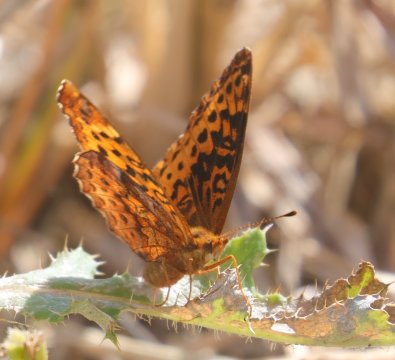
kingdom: Animalia
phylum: Arthropoda
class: Insecta
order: Lepidoptera
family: Nymphalidae
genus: Clossiana
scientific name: Clossiana toddi
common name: Meadow Fritillary
